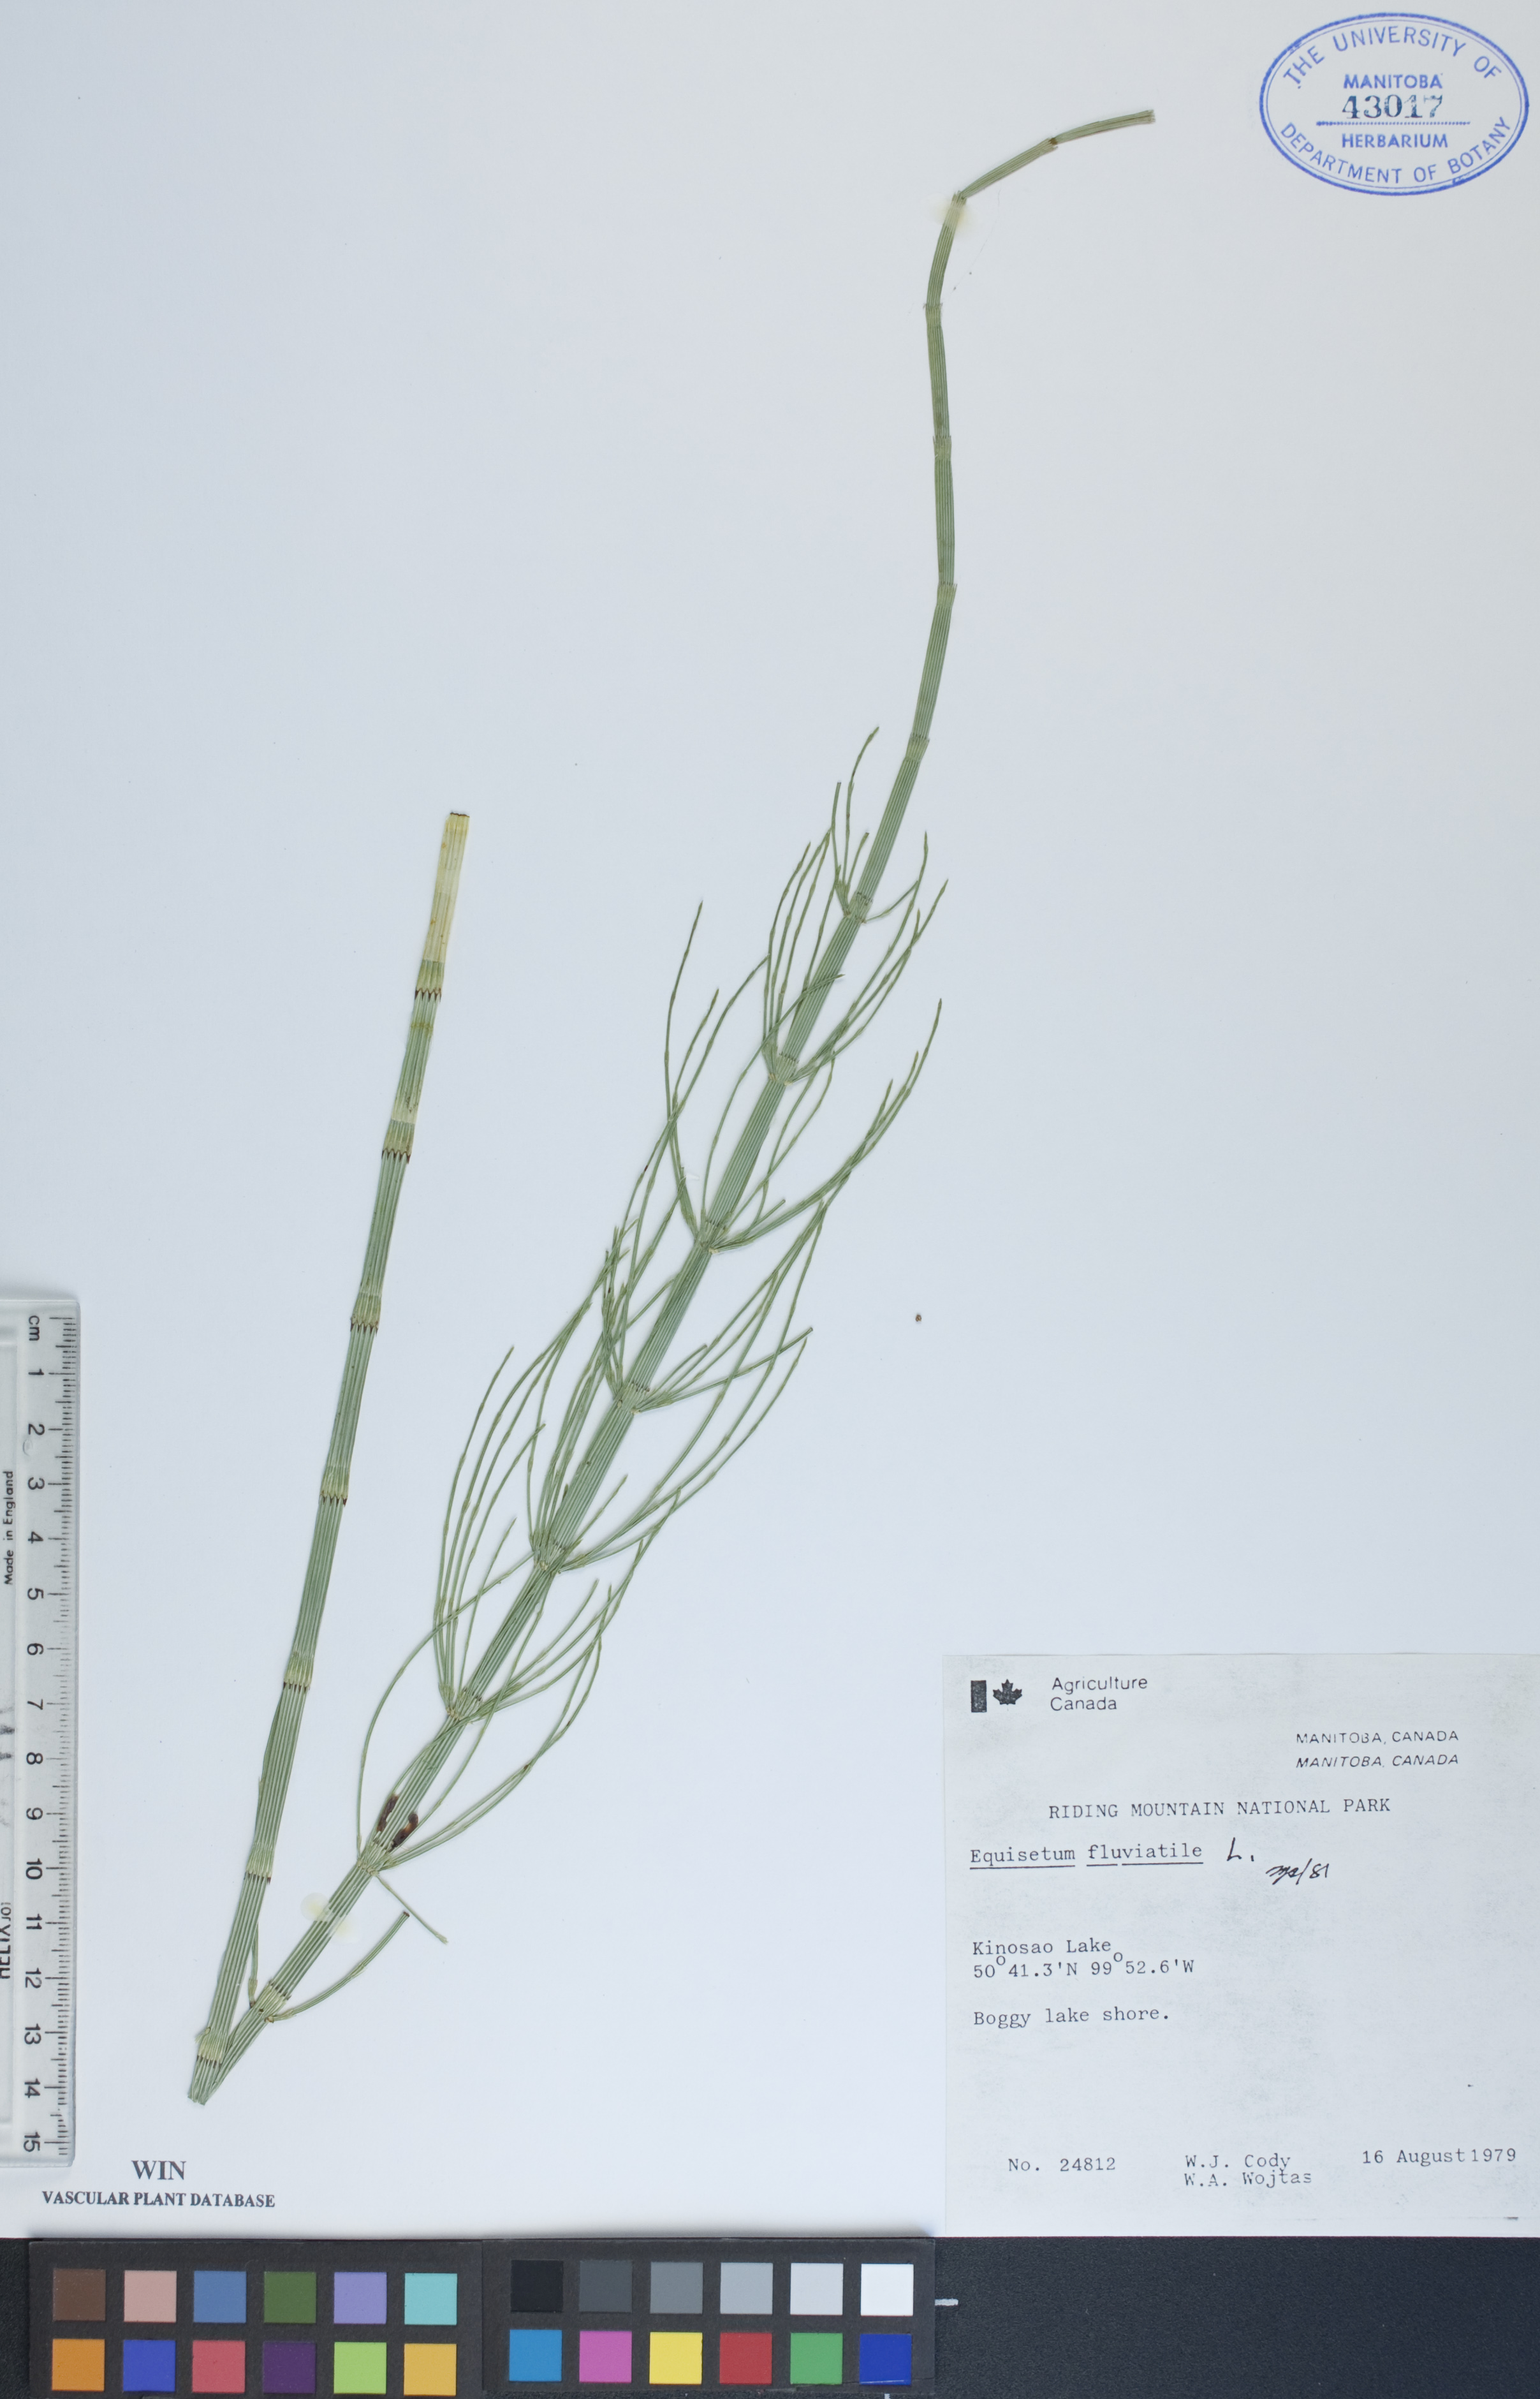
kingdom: Plantae
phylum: Tracheophyta
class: Polypodiopsida
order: Equisetales
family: Equisetaceae
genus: Equisetum
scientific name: Equisetum fluviatile
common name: Water horsetail
